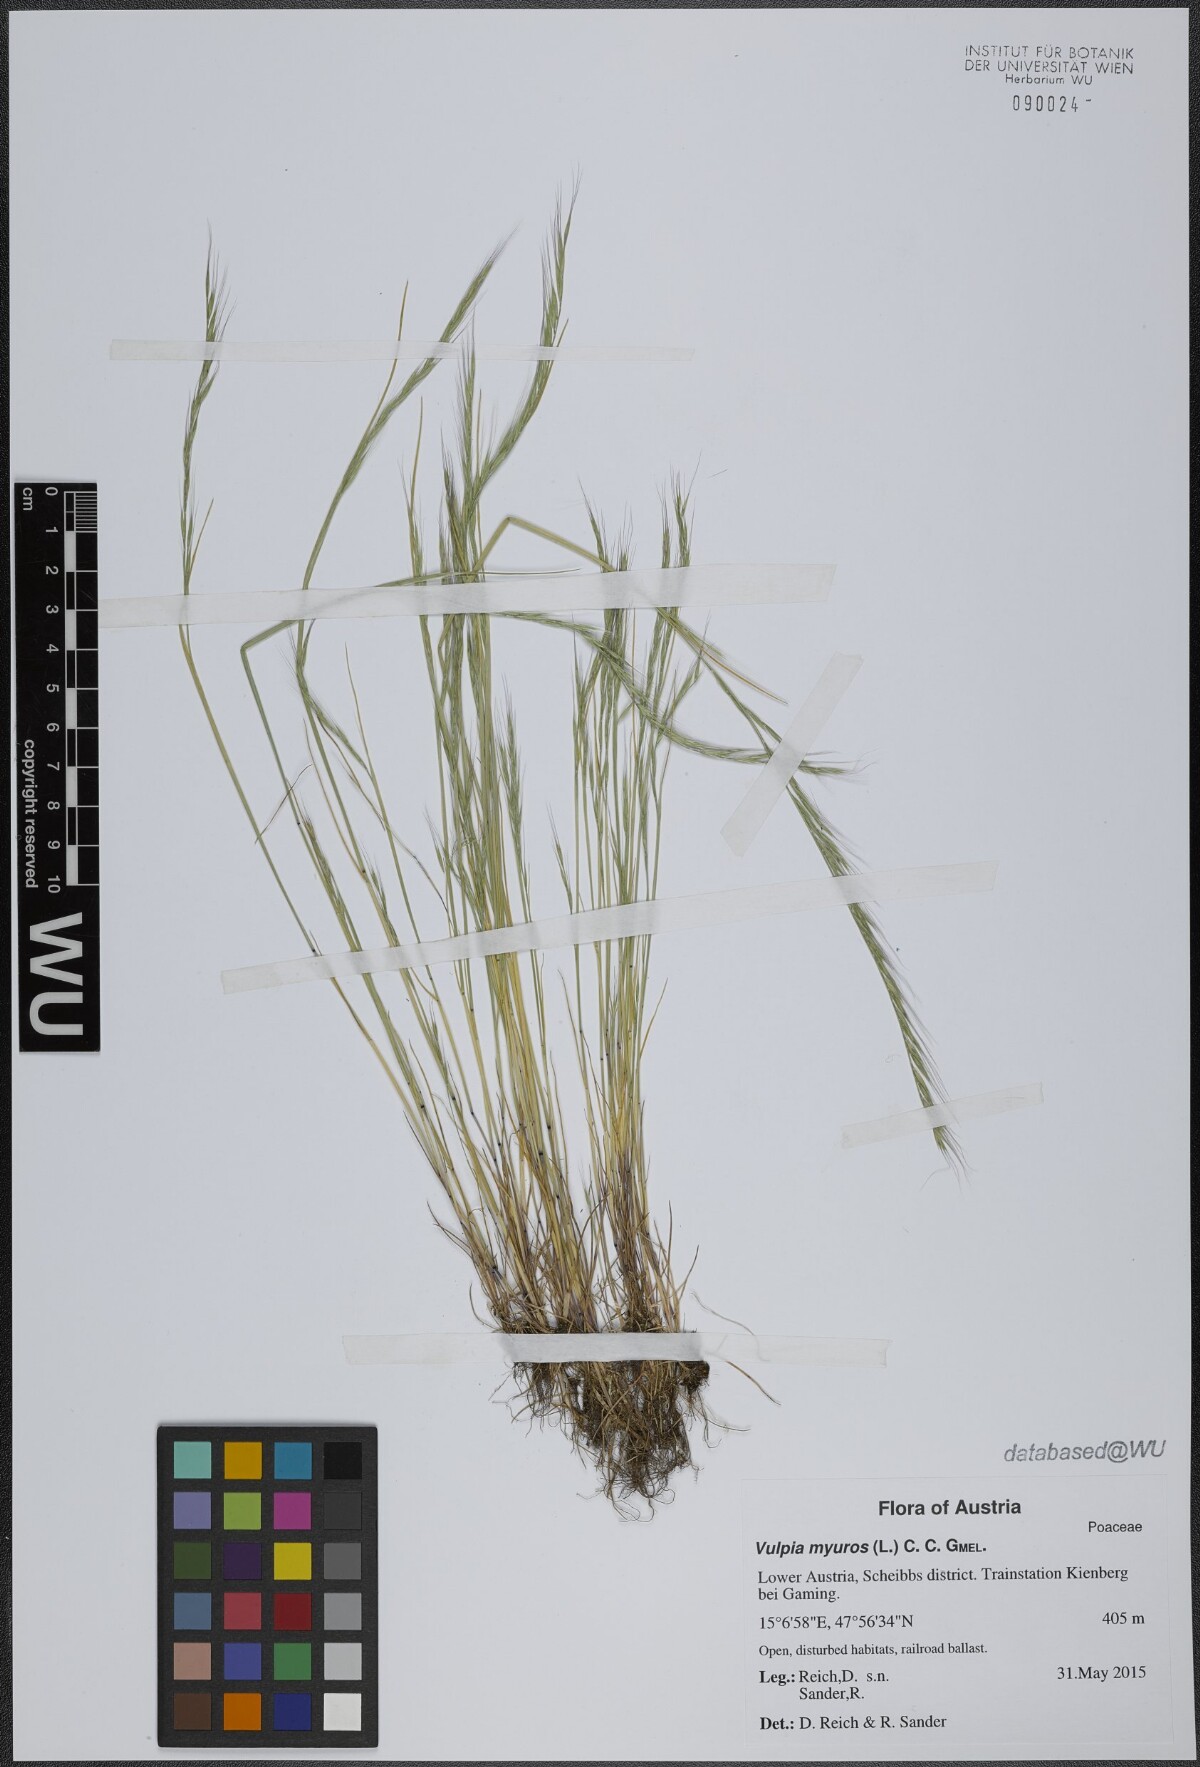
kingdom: Plantae
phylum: Tracheophyta
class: Liliopsida
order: Poales
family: Poaceae
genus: Festuca
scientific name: Festuca myuros
